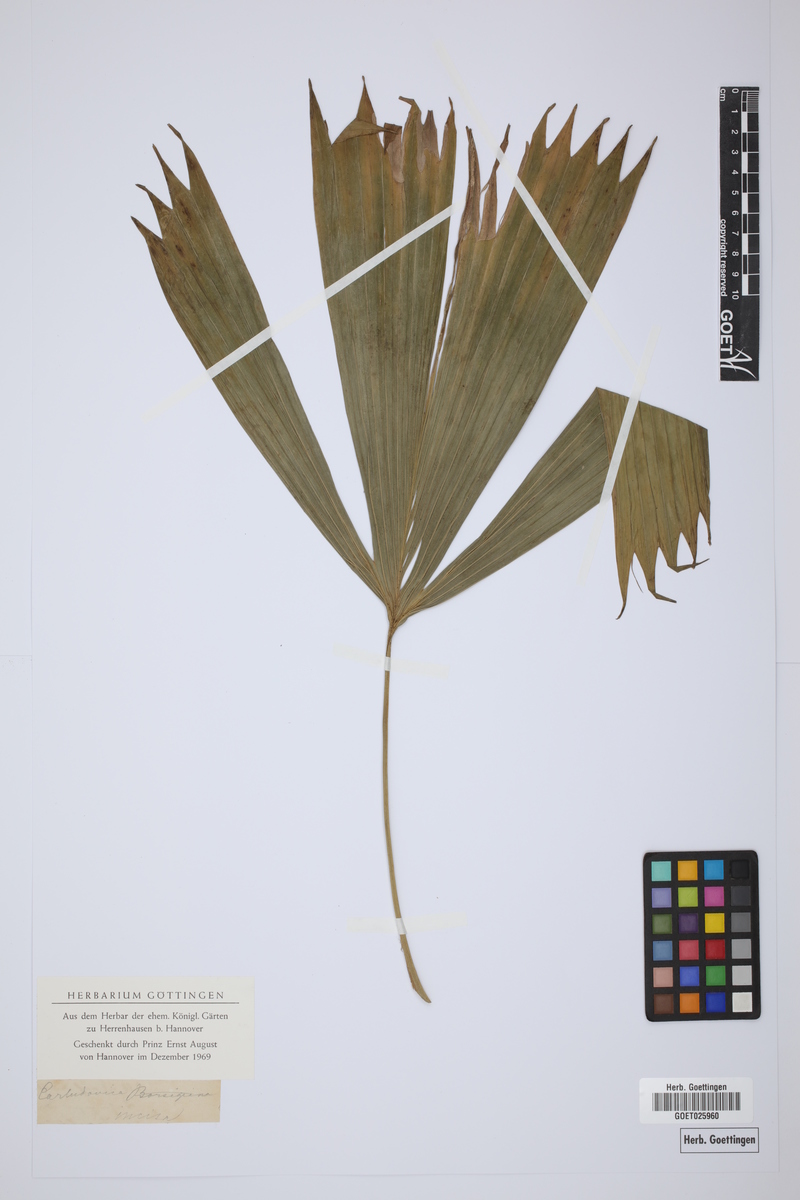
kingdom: Plantae
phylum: Tracheophyta
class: Liliopsida
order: Pandanales
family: Cyclanthaceae
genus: Carludovica
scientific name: Carludovica palmata
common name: Panama hat plant
